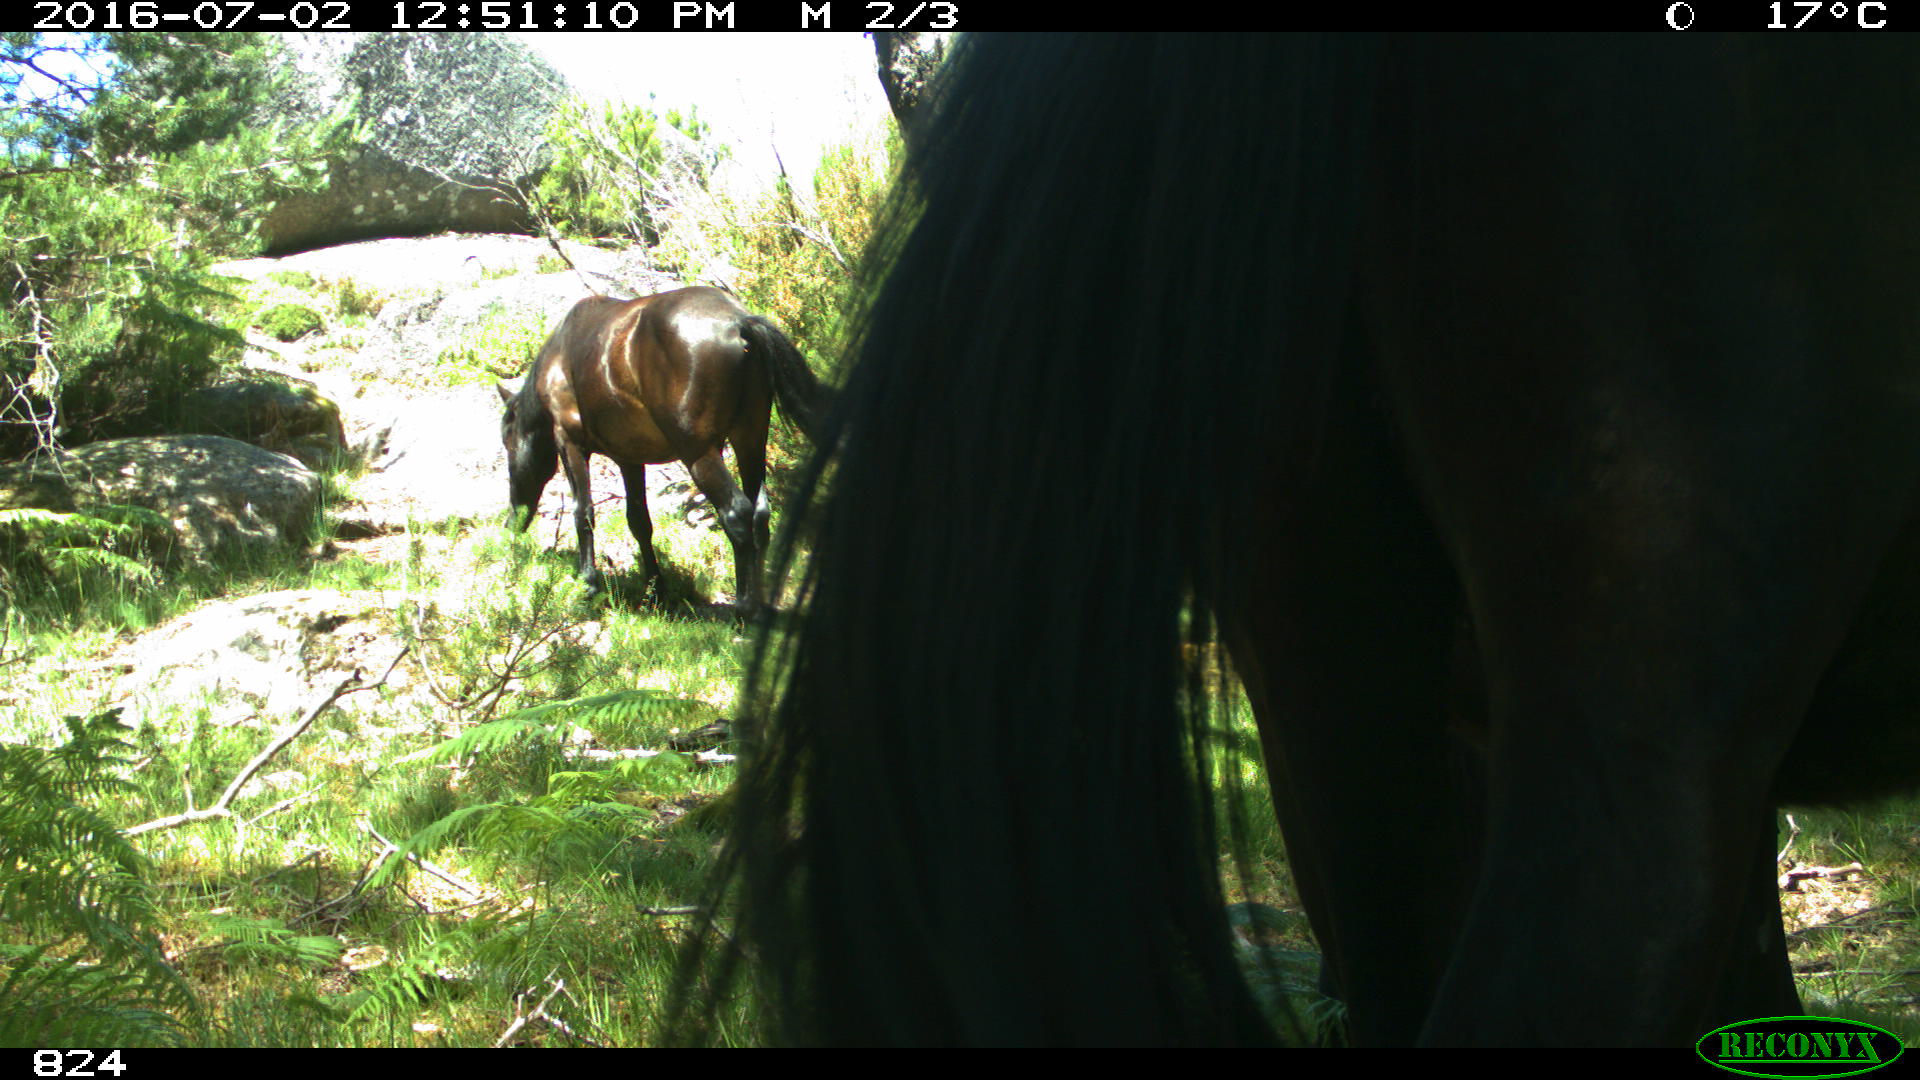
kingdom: Animalia
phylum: Chordata
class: Mammalia
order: Perissodactyla
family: Equidae
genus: Equus
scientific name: Equus caballus
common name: Horse
